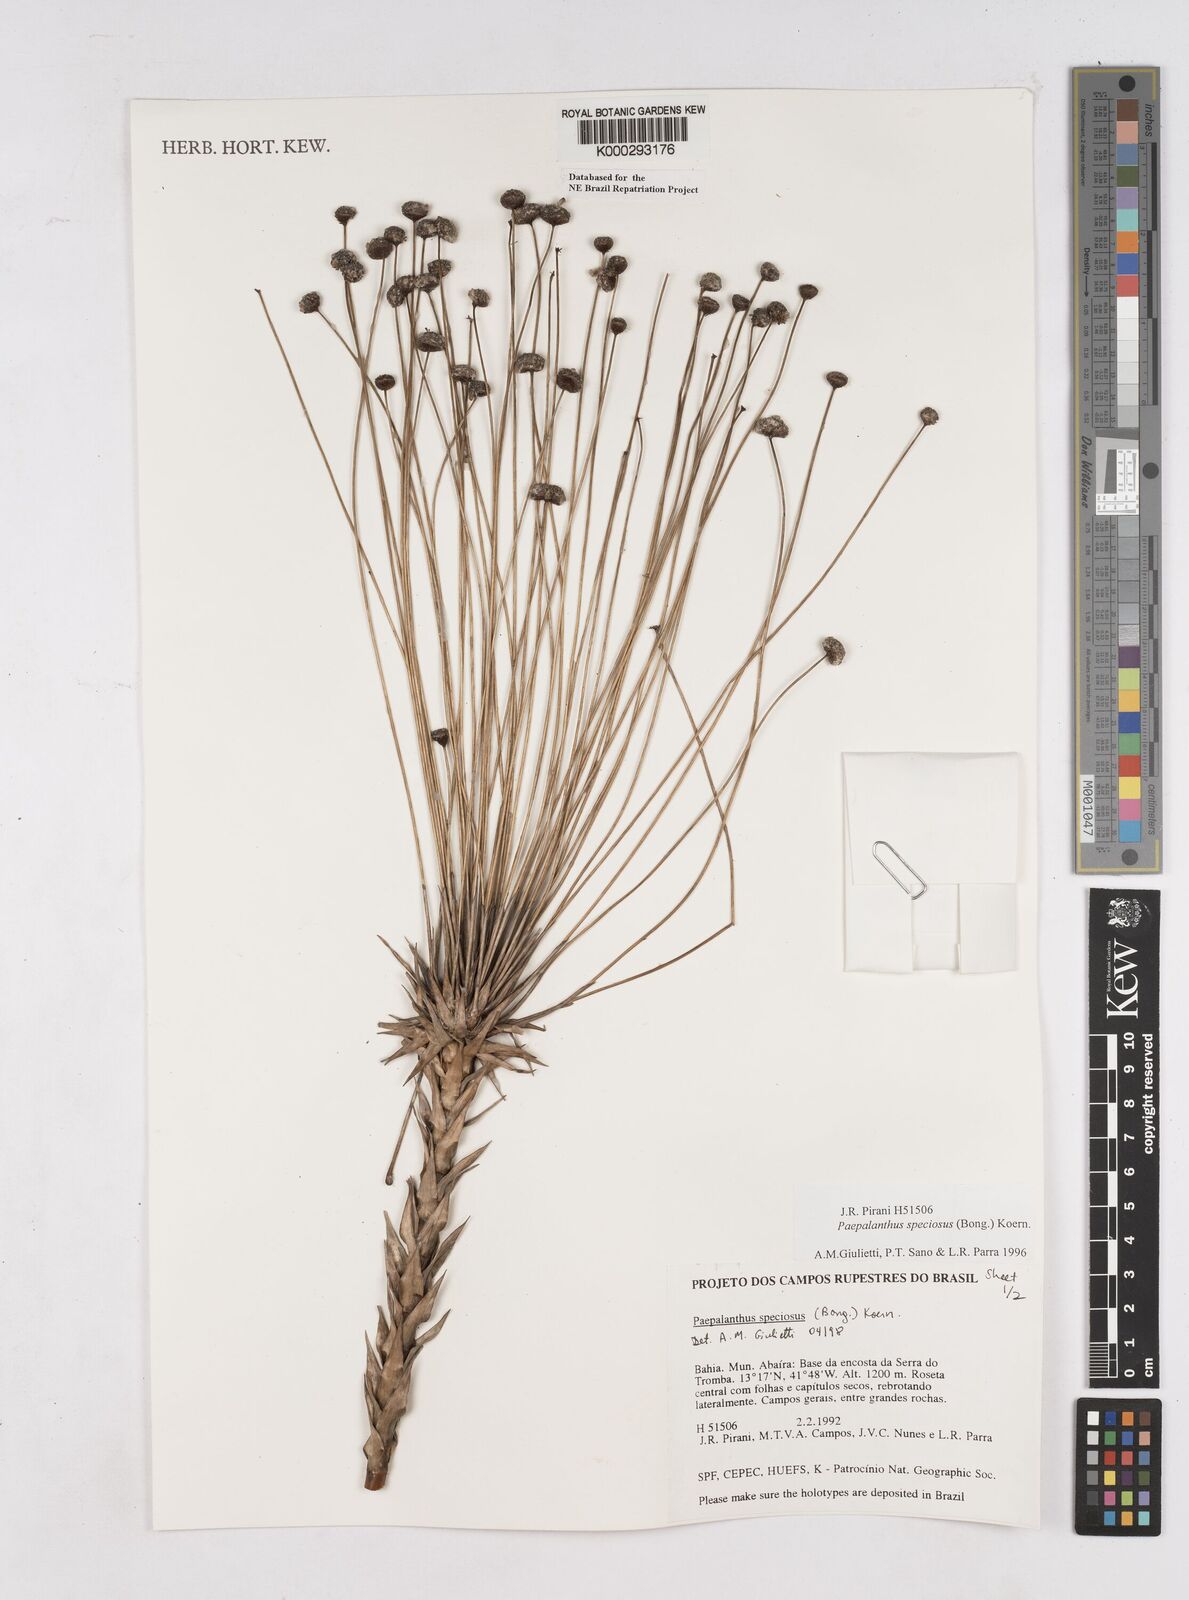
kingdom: Plantae
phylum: Tracheophyta
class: Liliopsida
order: Poales
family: Eriocaulaceae
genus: Paepalanthus
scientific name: Paepalanthus
